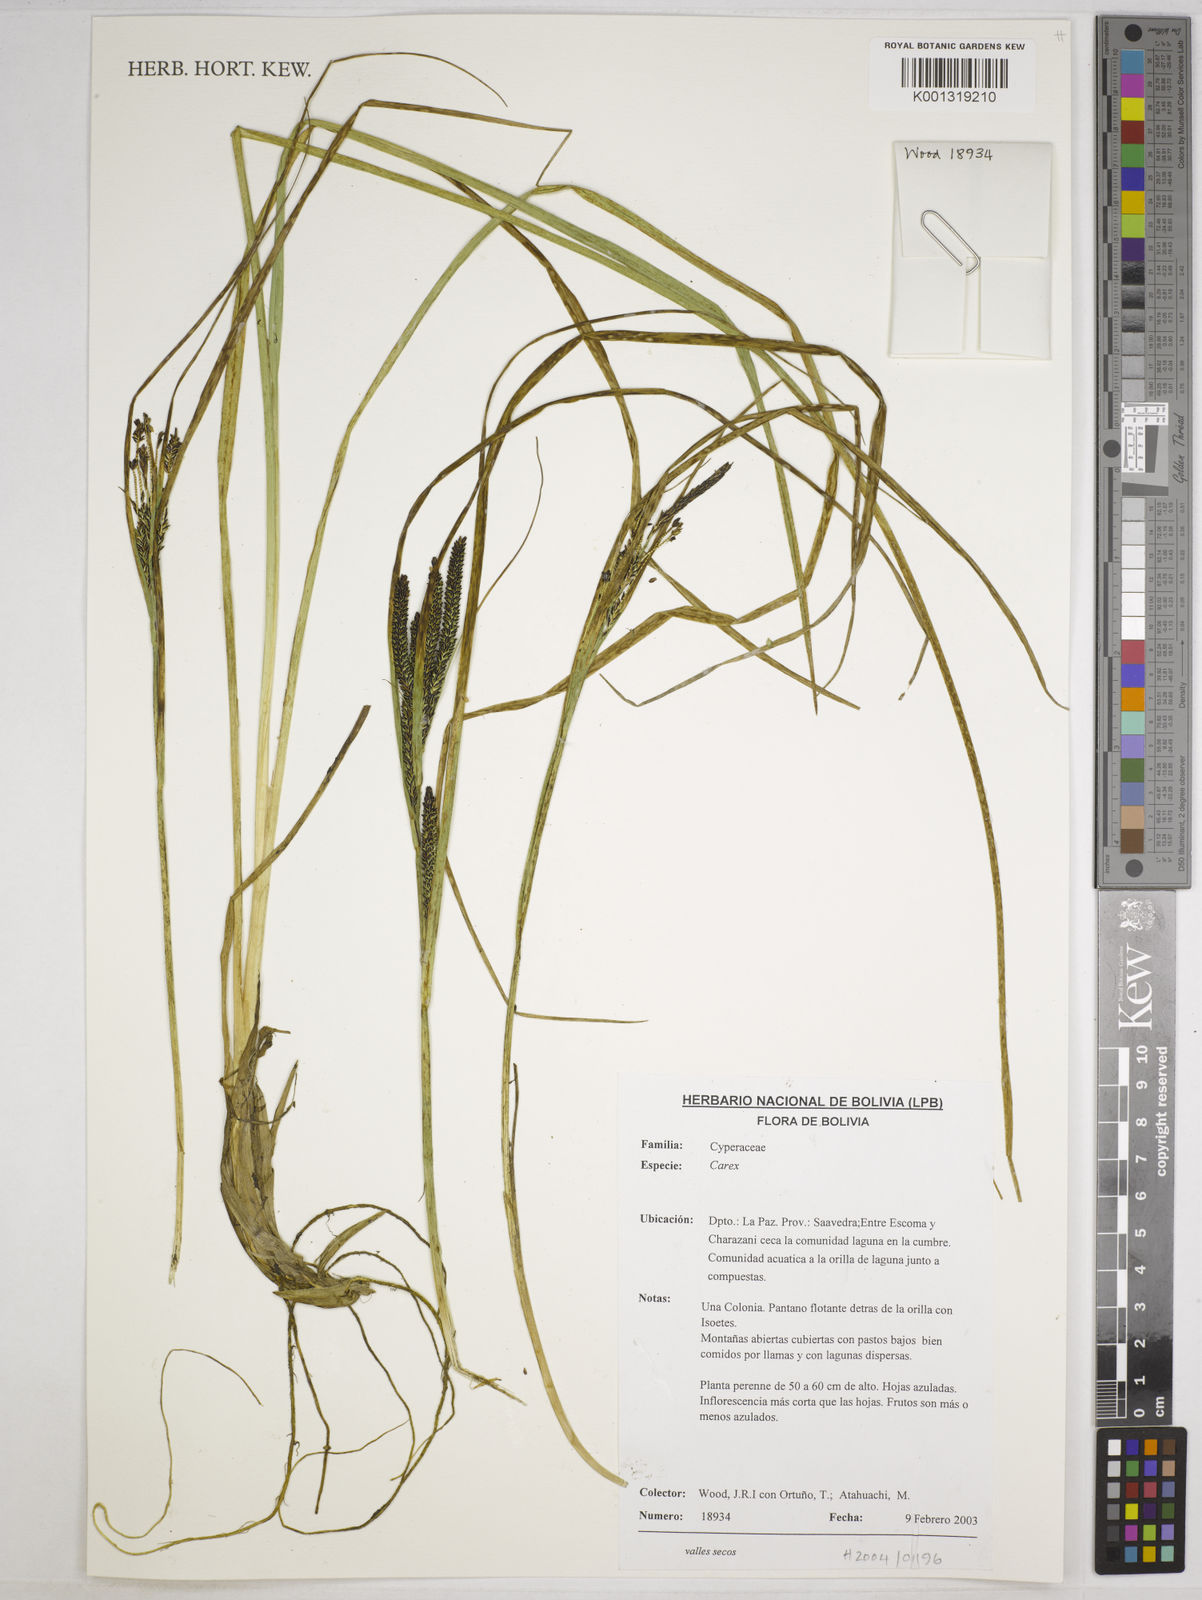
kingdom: Plantae
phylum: Tracheophyta
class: Liliopsida
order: Poales
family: Cyperaceae
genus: Carex
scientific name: Carex enneastachya
